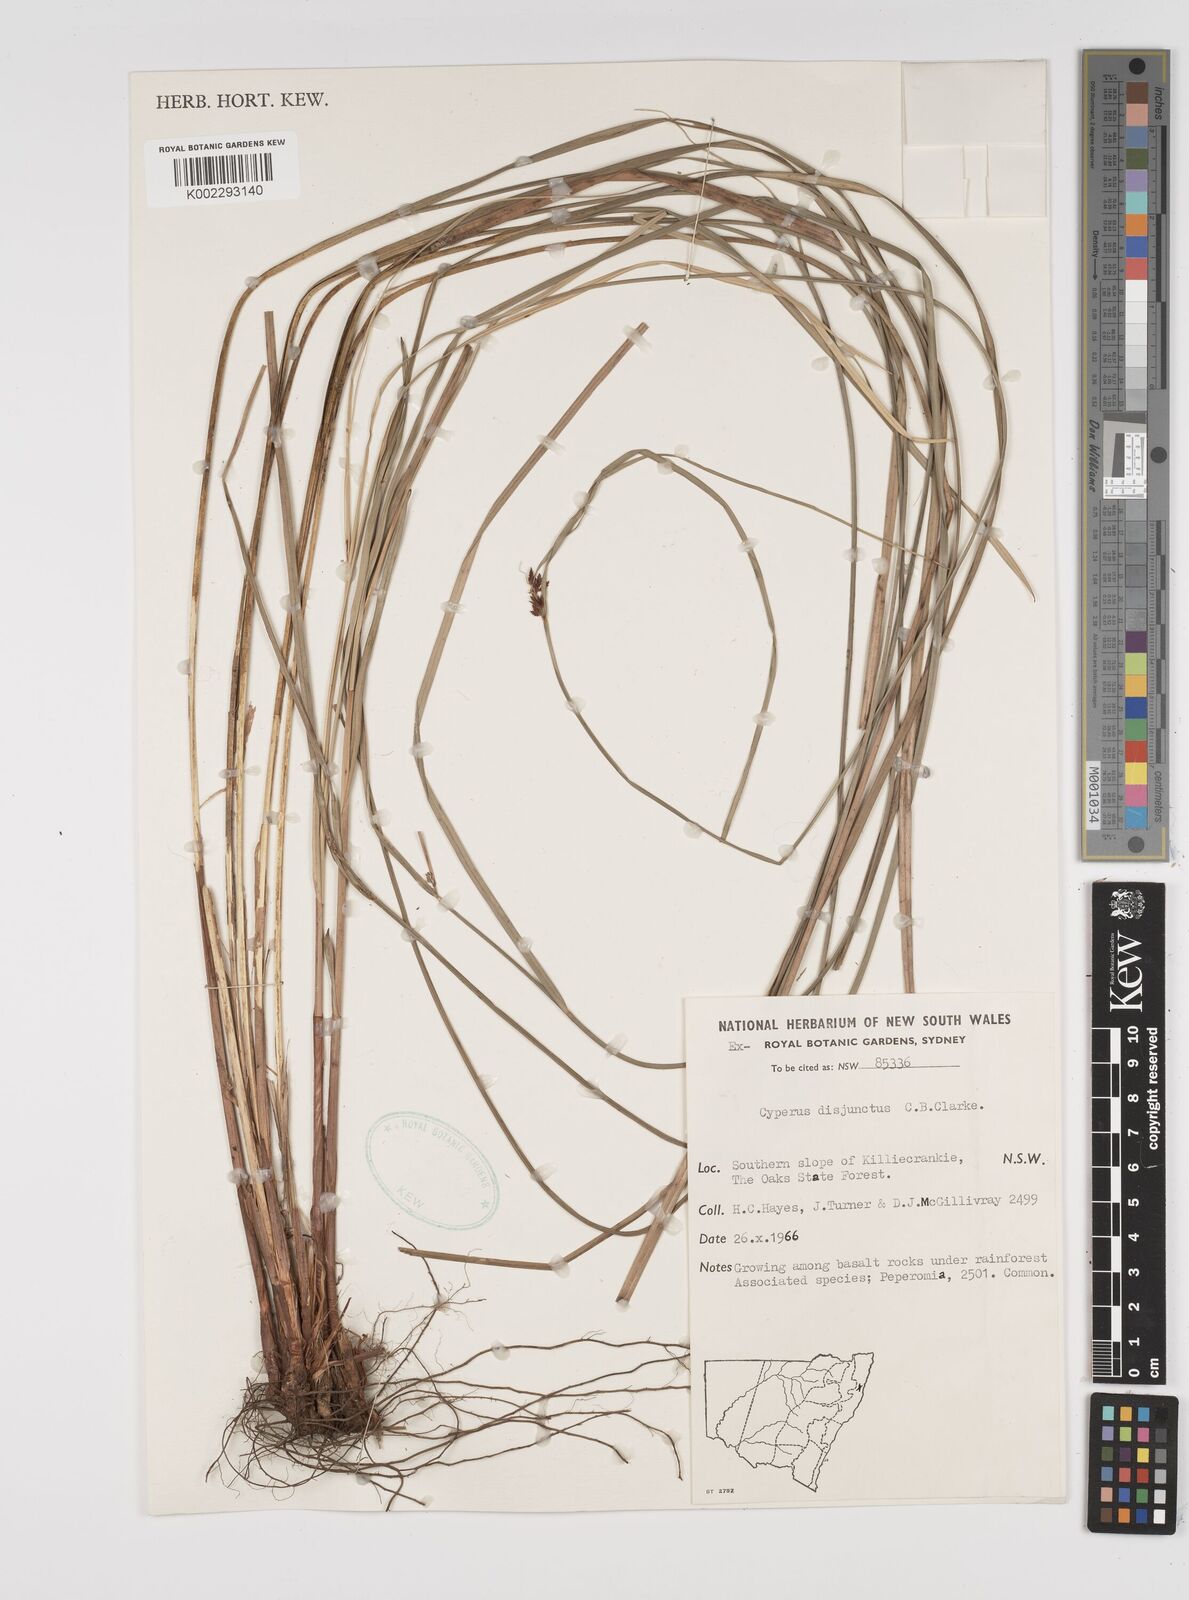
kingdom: Plantae
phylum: Tracheophyta
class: Liliopsida
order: Poales
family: Cyperaceae
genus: Cyperus
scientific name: Cyperus disjunctus
